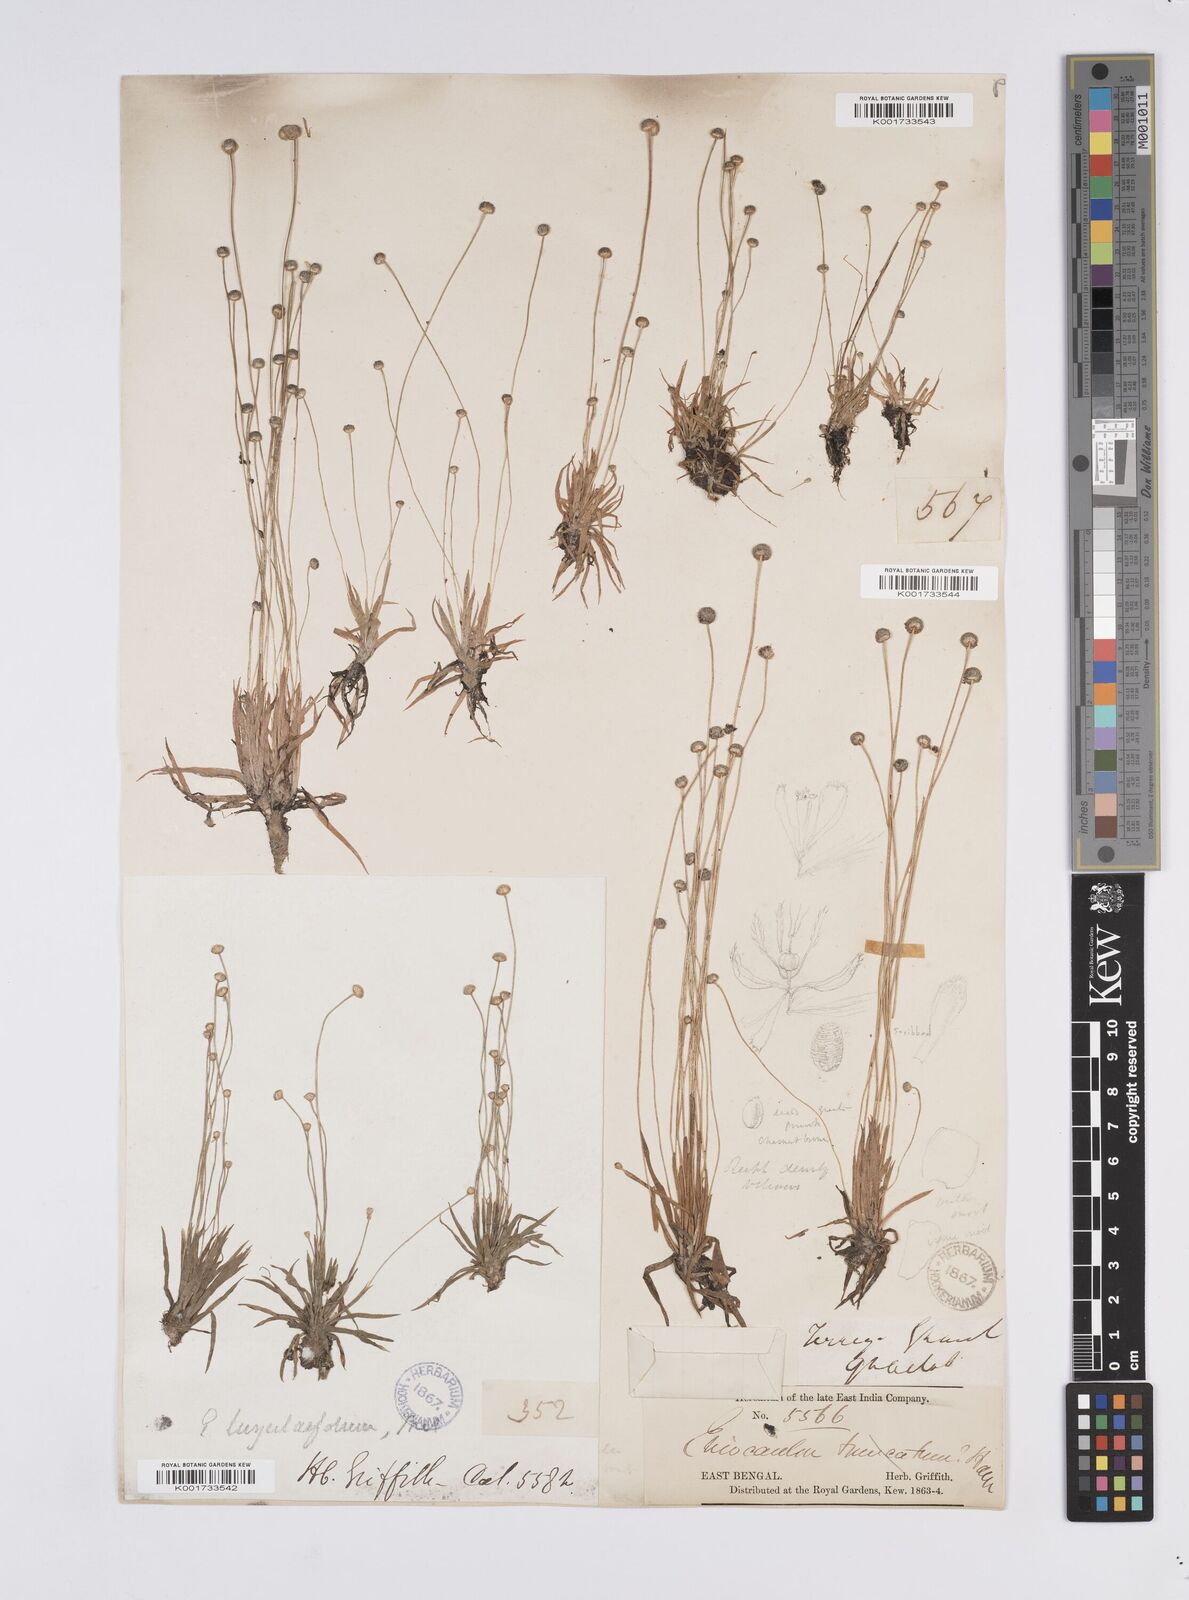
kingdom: Plantae
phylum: Tracheophyta
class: Liliopsida
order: Poales
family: Eriocaulaceae
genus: Eriocaulon
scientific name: Eriocaulon nepalense
